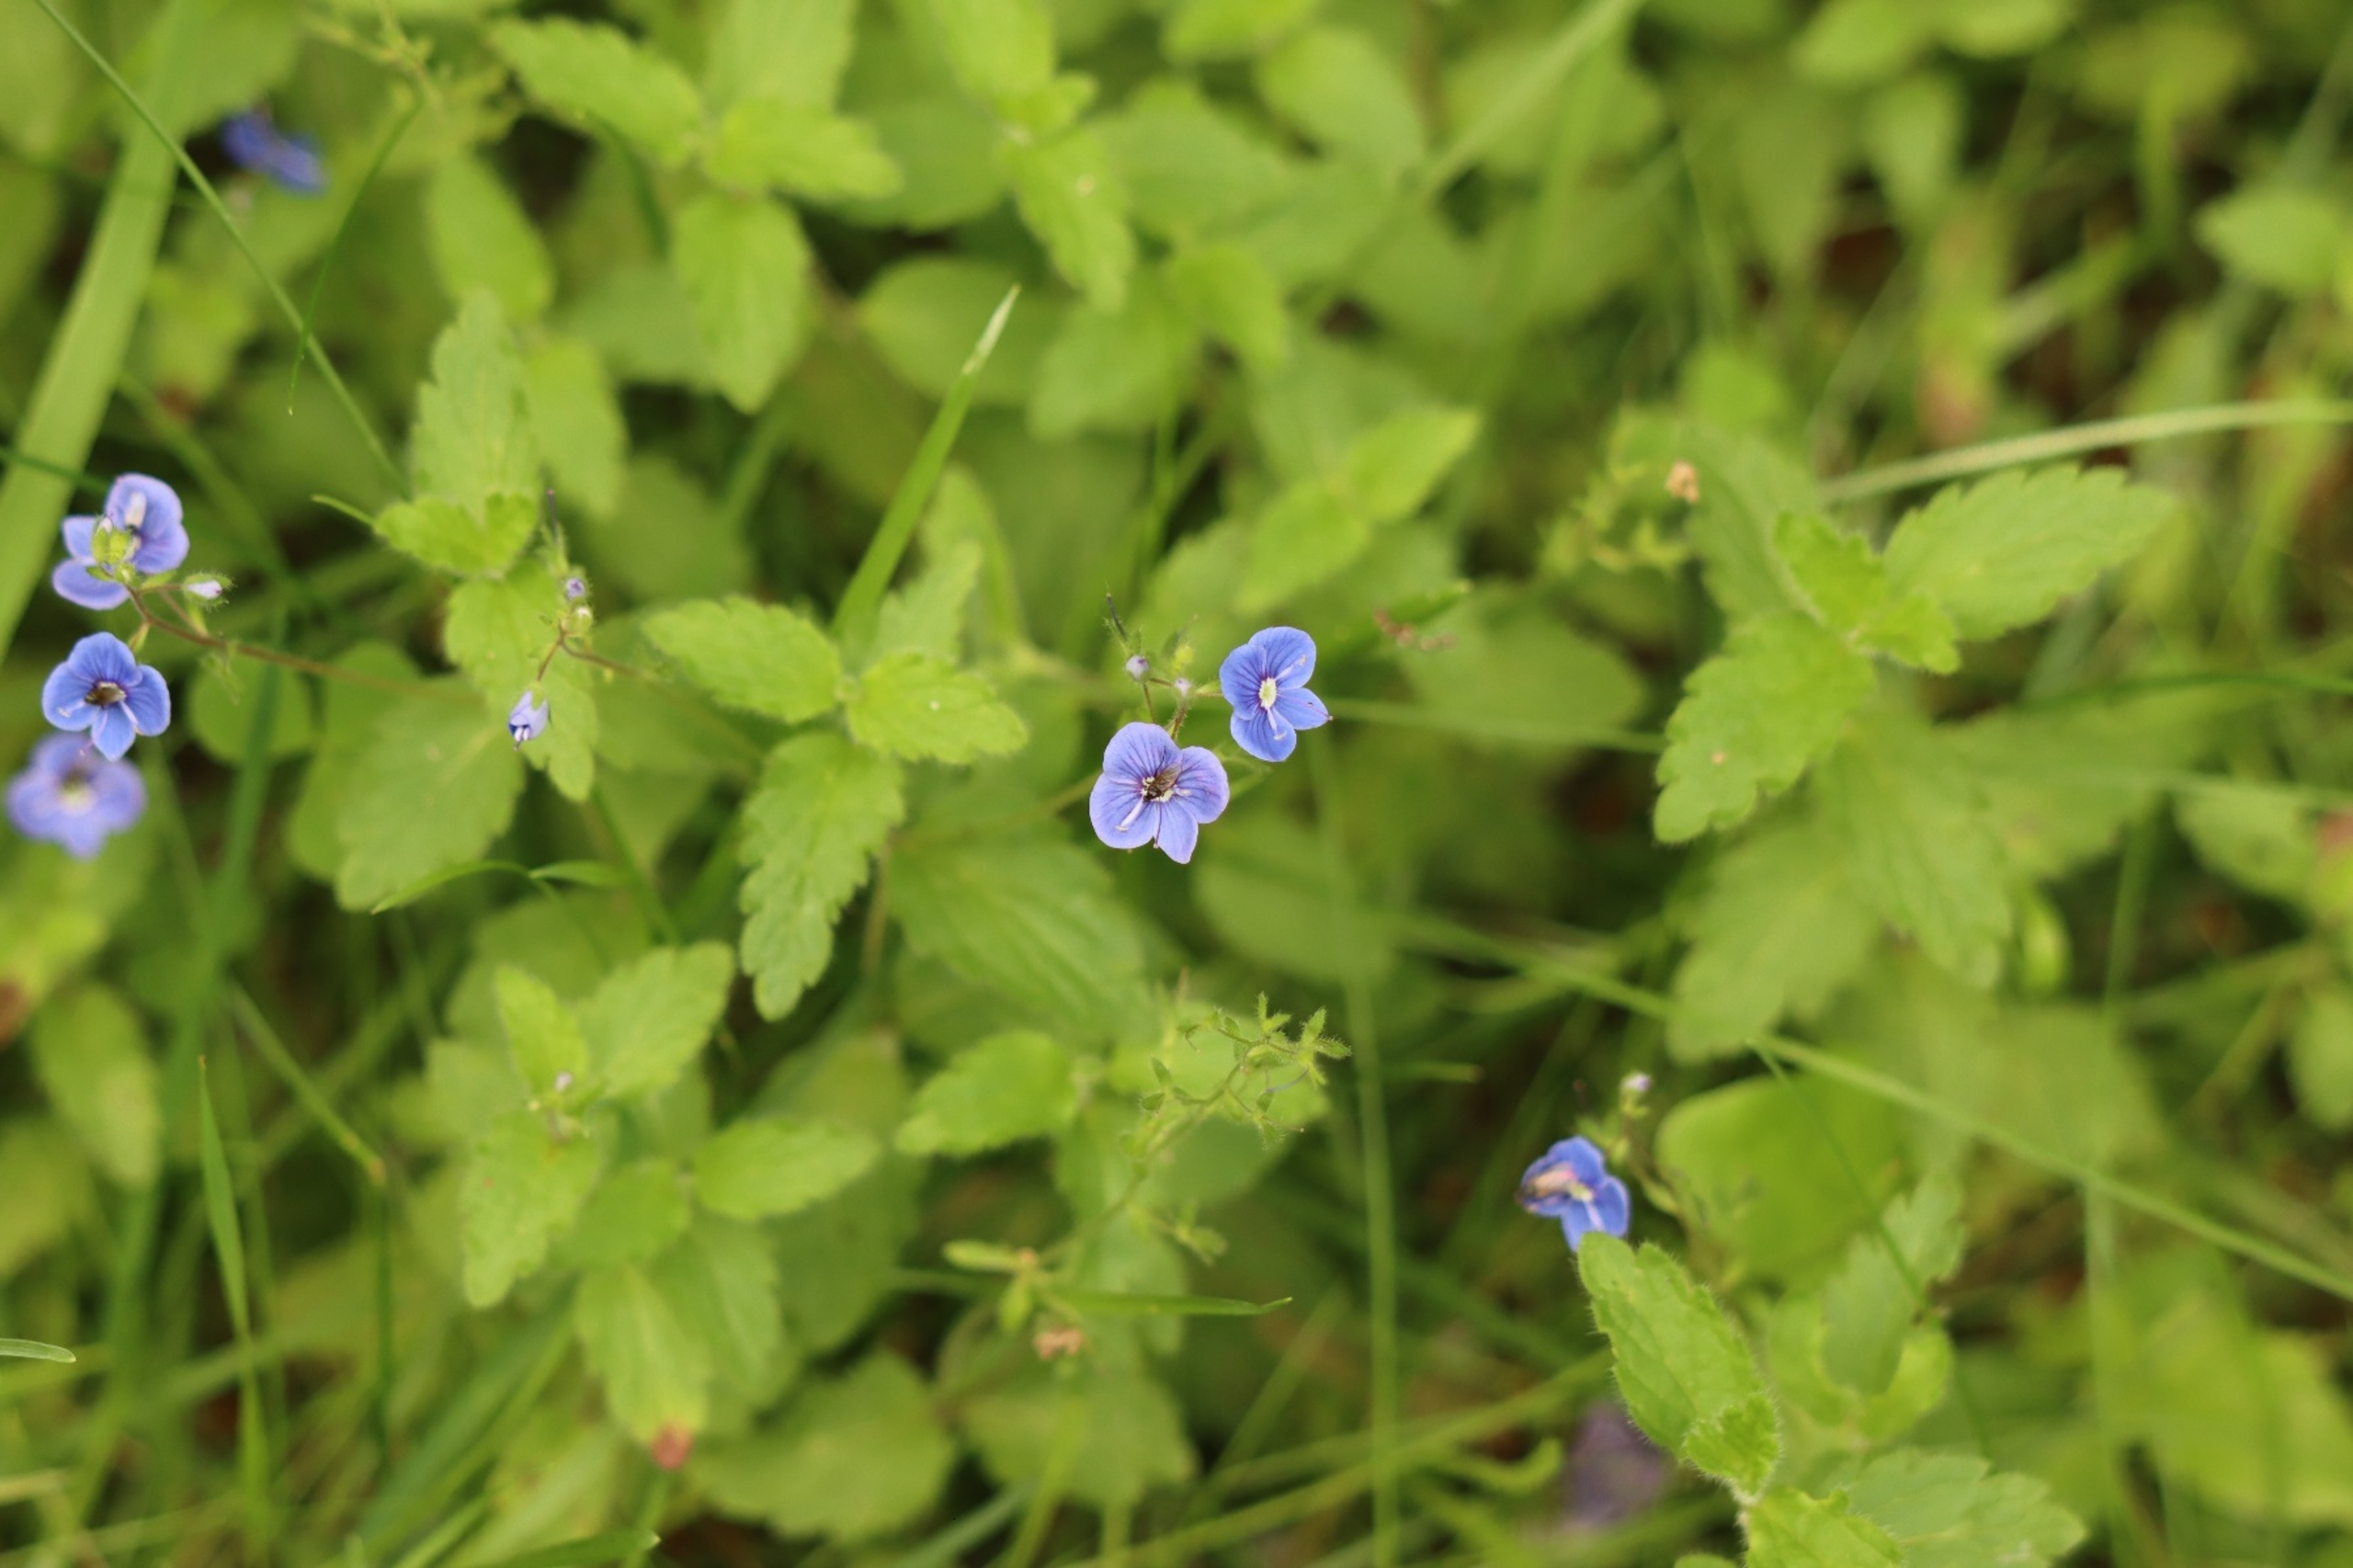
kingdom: Plantae
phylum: Tracheophyta
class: Magnoliopsida
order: Lamiales
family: Plantaginaceae
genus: Veronica
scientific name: Veronica chamaedrys
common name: Tveskægget ærenpris
